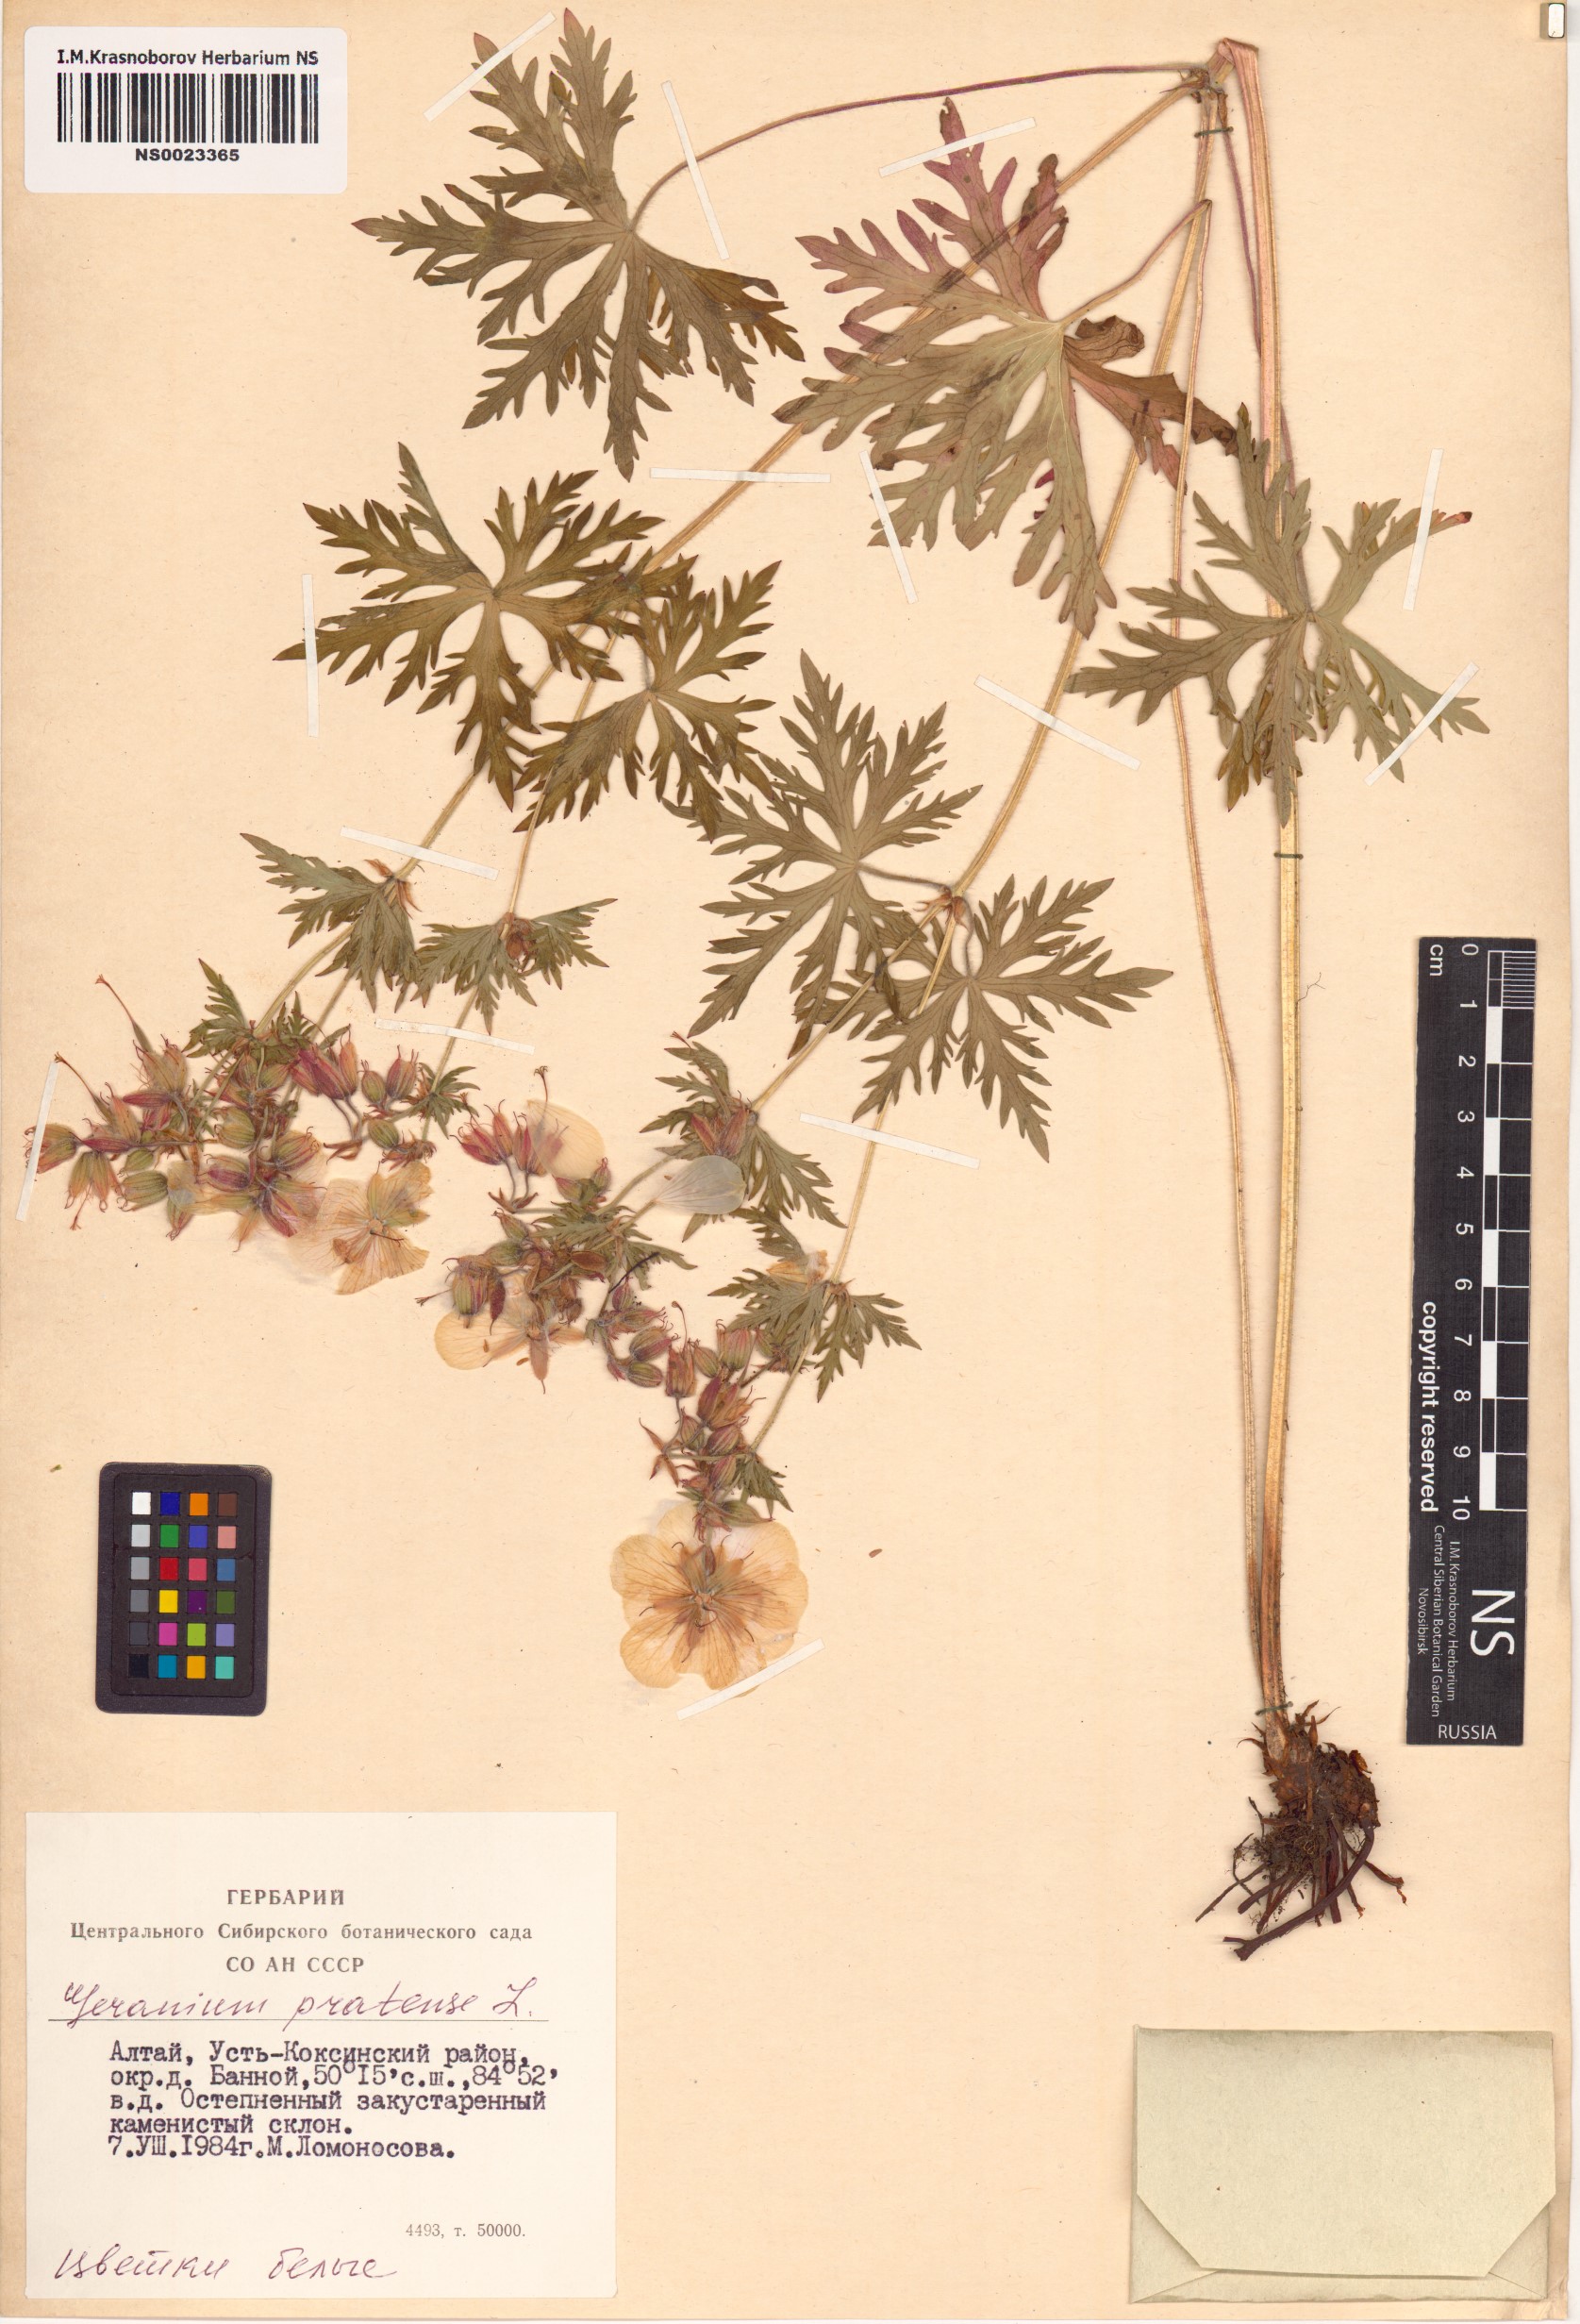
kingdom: Plantae
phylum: Tracheophyta
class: Magnoliopsida
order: Geraniales
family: Geraniaceae
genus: Geranium
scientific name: Geranium pratense
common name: Meadow crane's-bill
